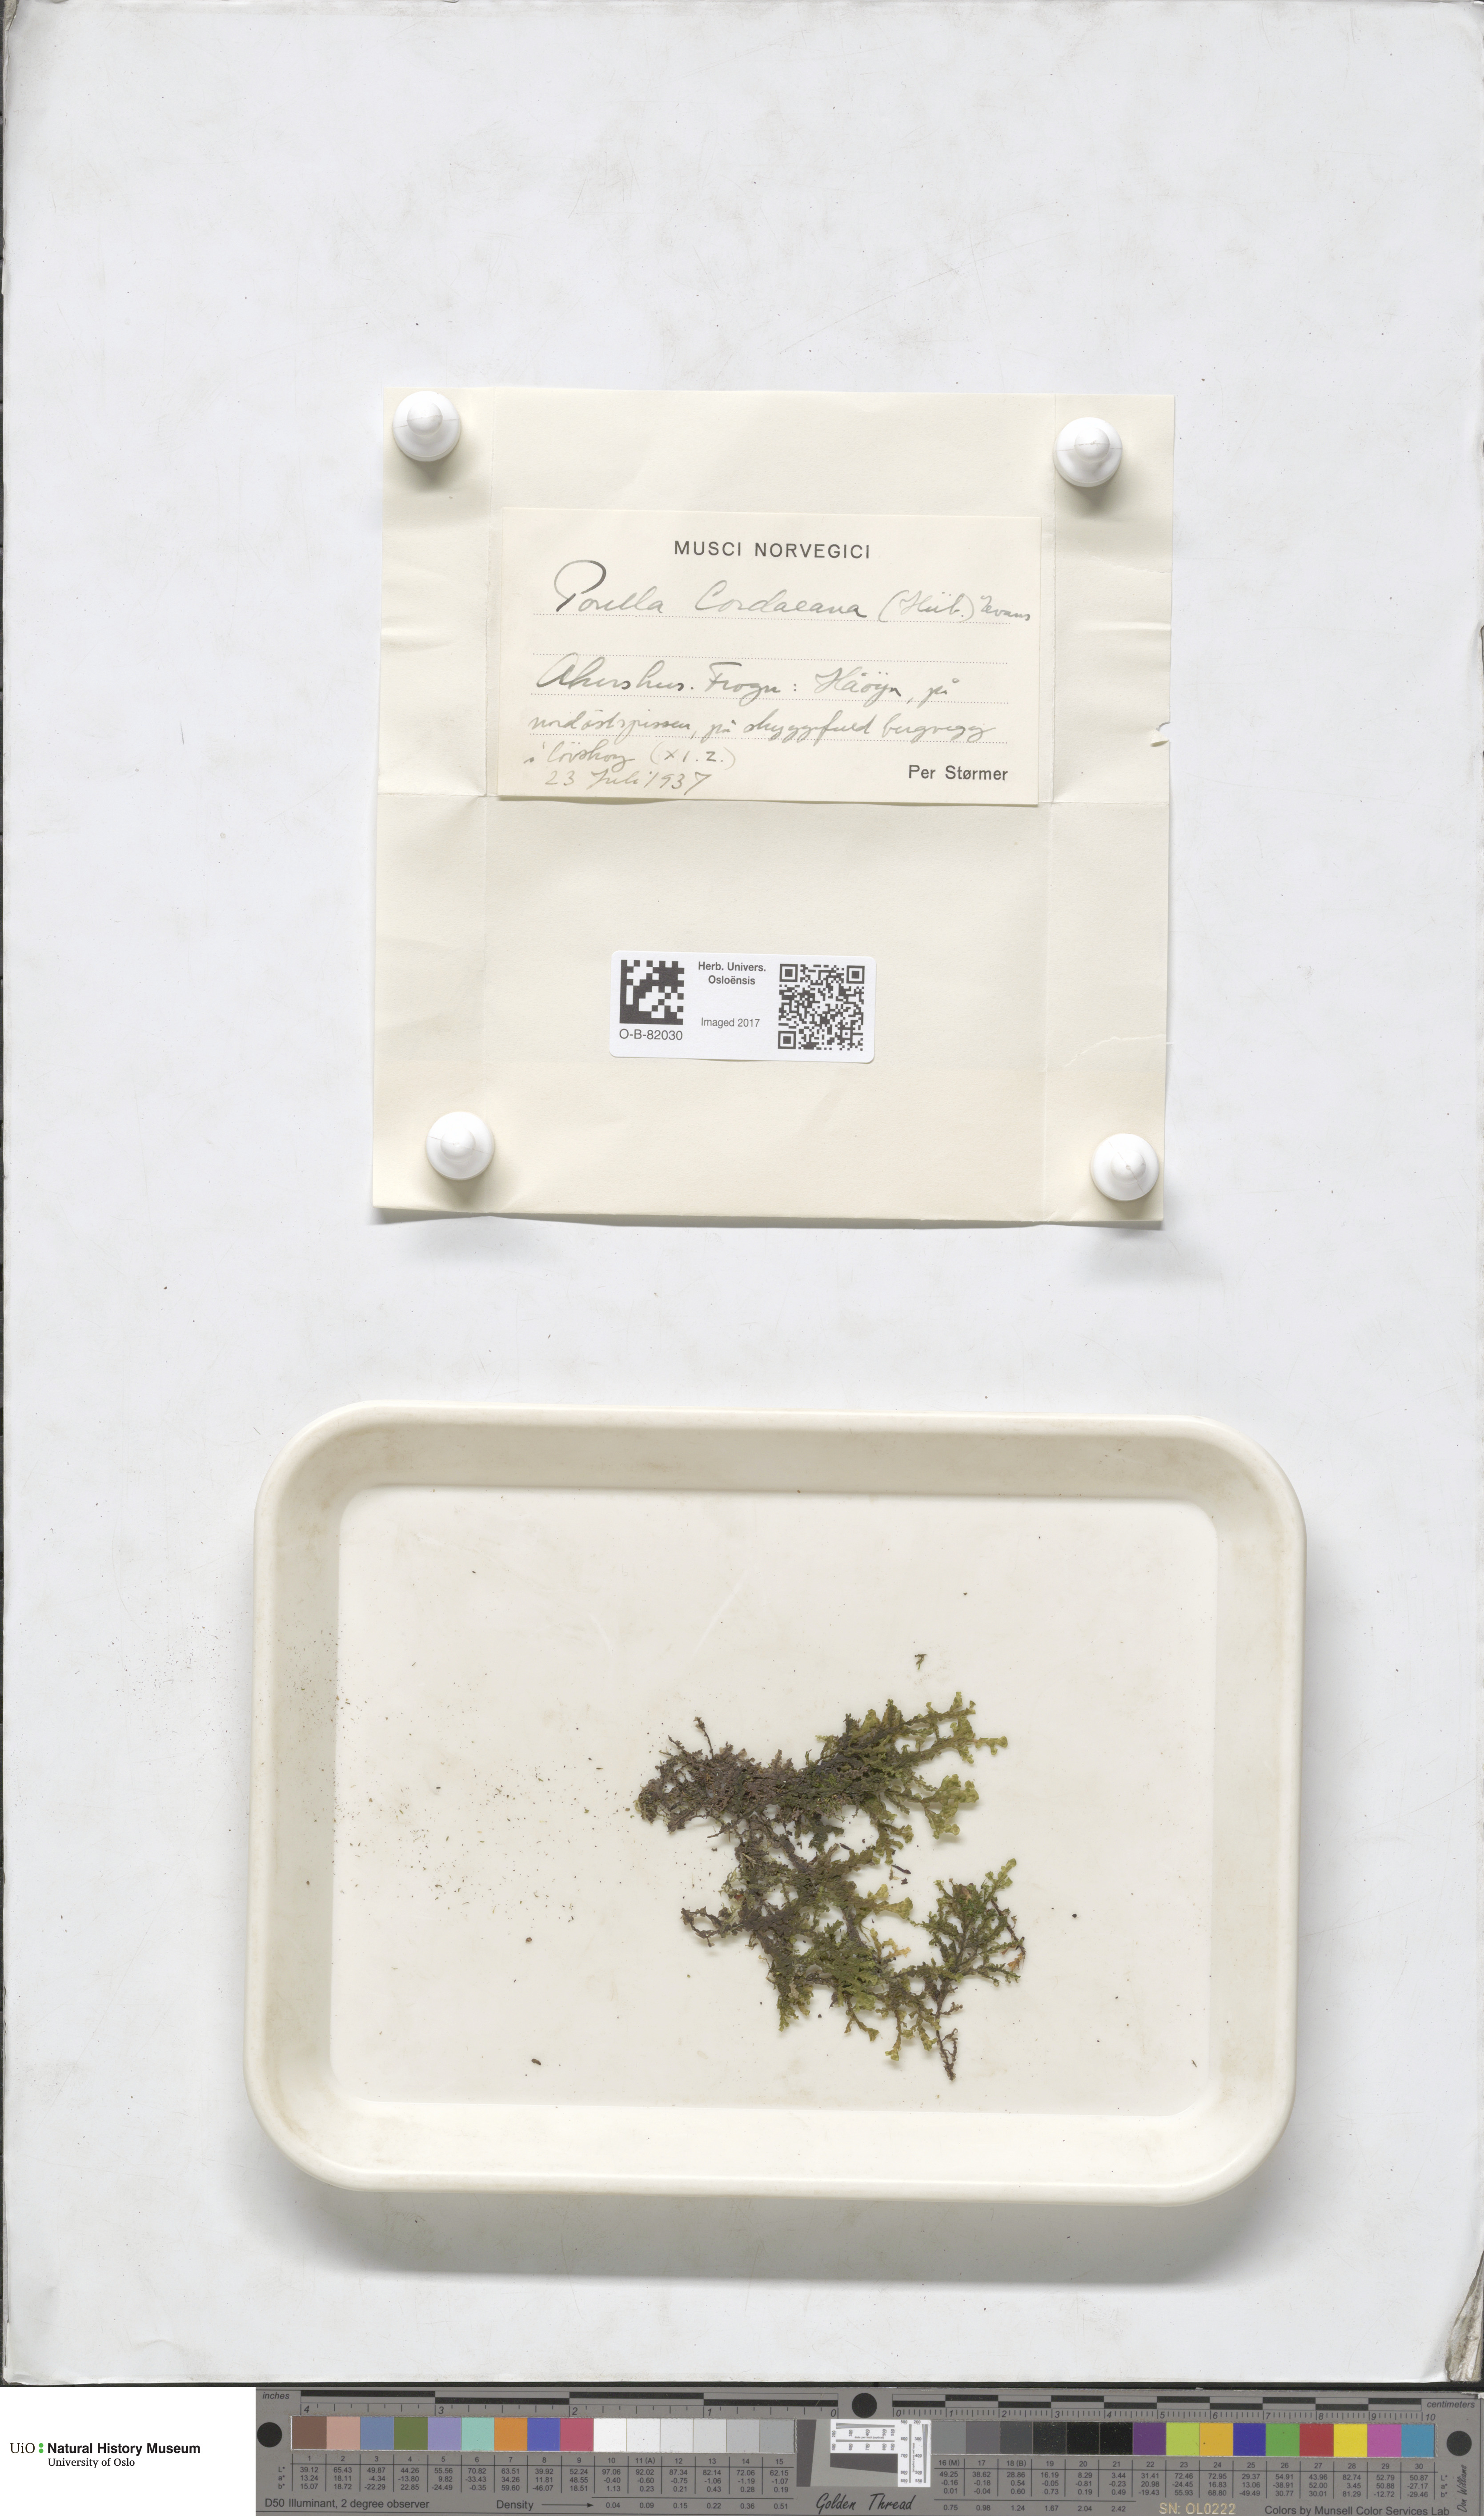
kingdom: Plantae
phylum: Marchantiophyta
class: Jungermanniopsida
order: Porellales
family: Porellaceae
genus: Porella
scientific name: Porella cordaeana
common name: Cliff scalewort
